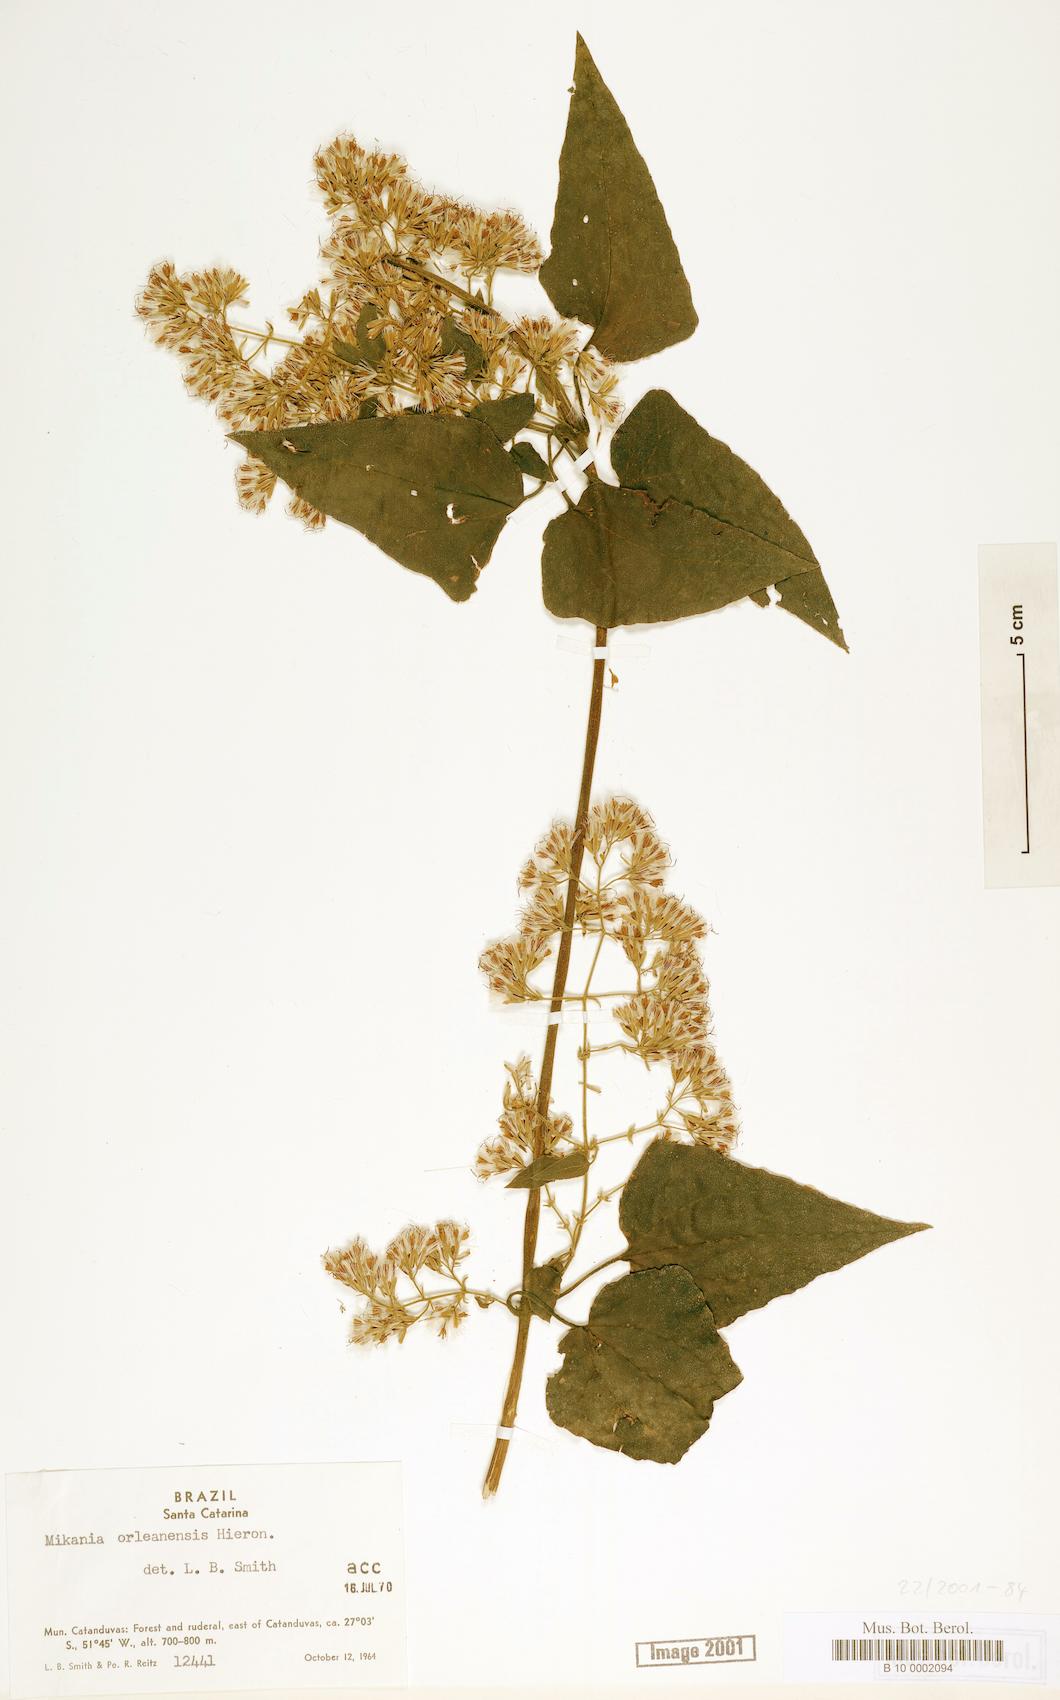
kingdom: Plantae
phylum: Tracheophyta
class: Magnoliopsida
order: Asterales
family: Asteraceae
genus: Mikania
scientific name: Mikania orleansensis
